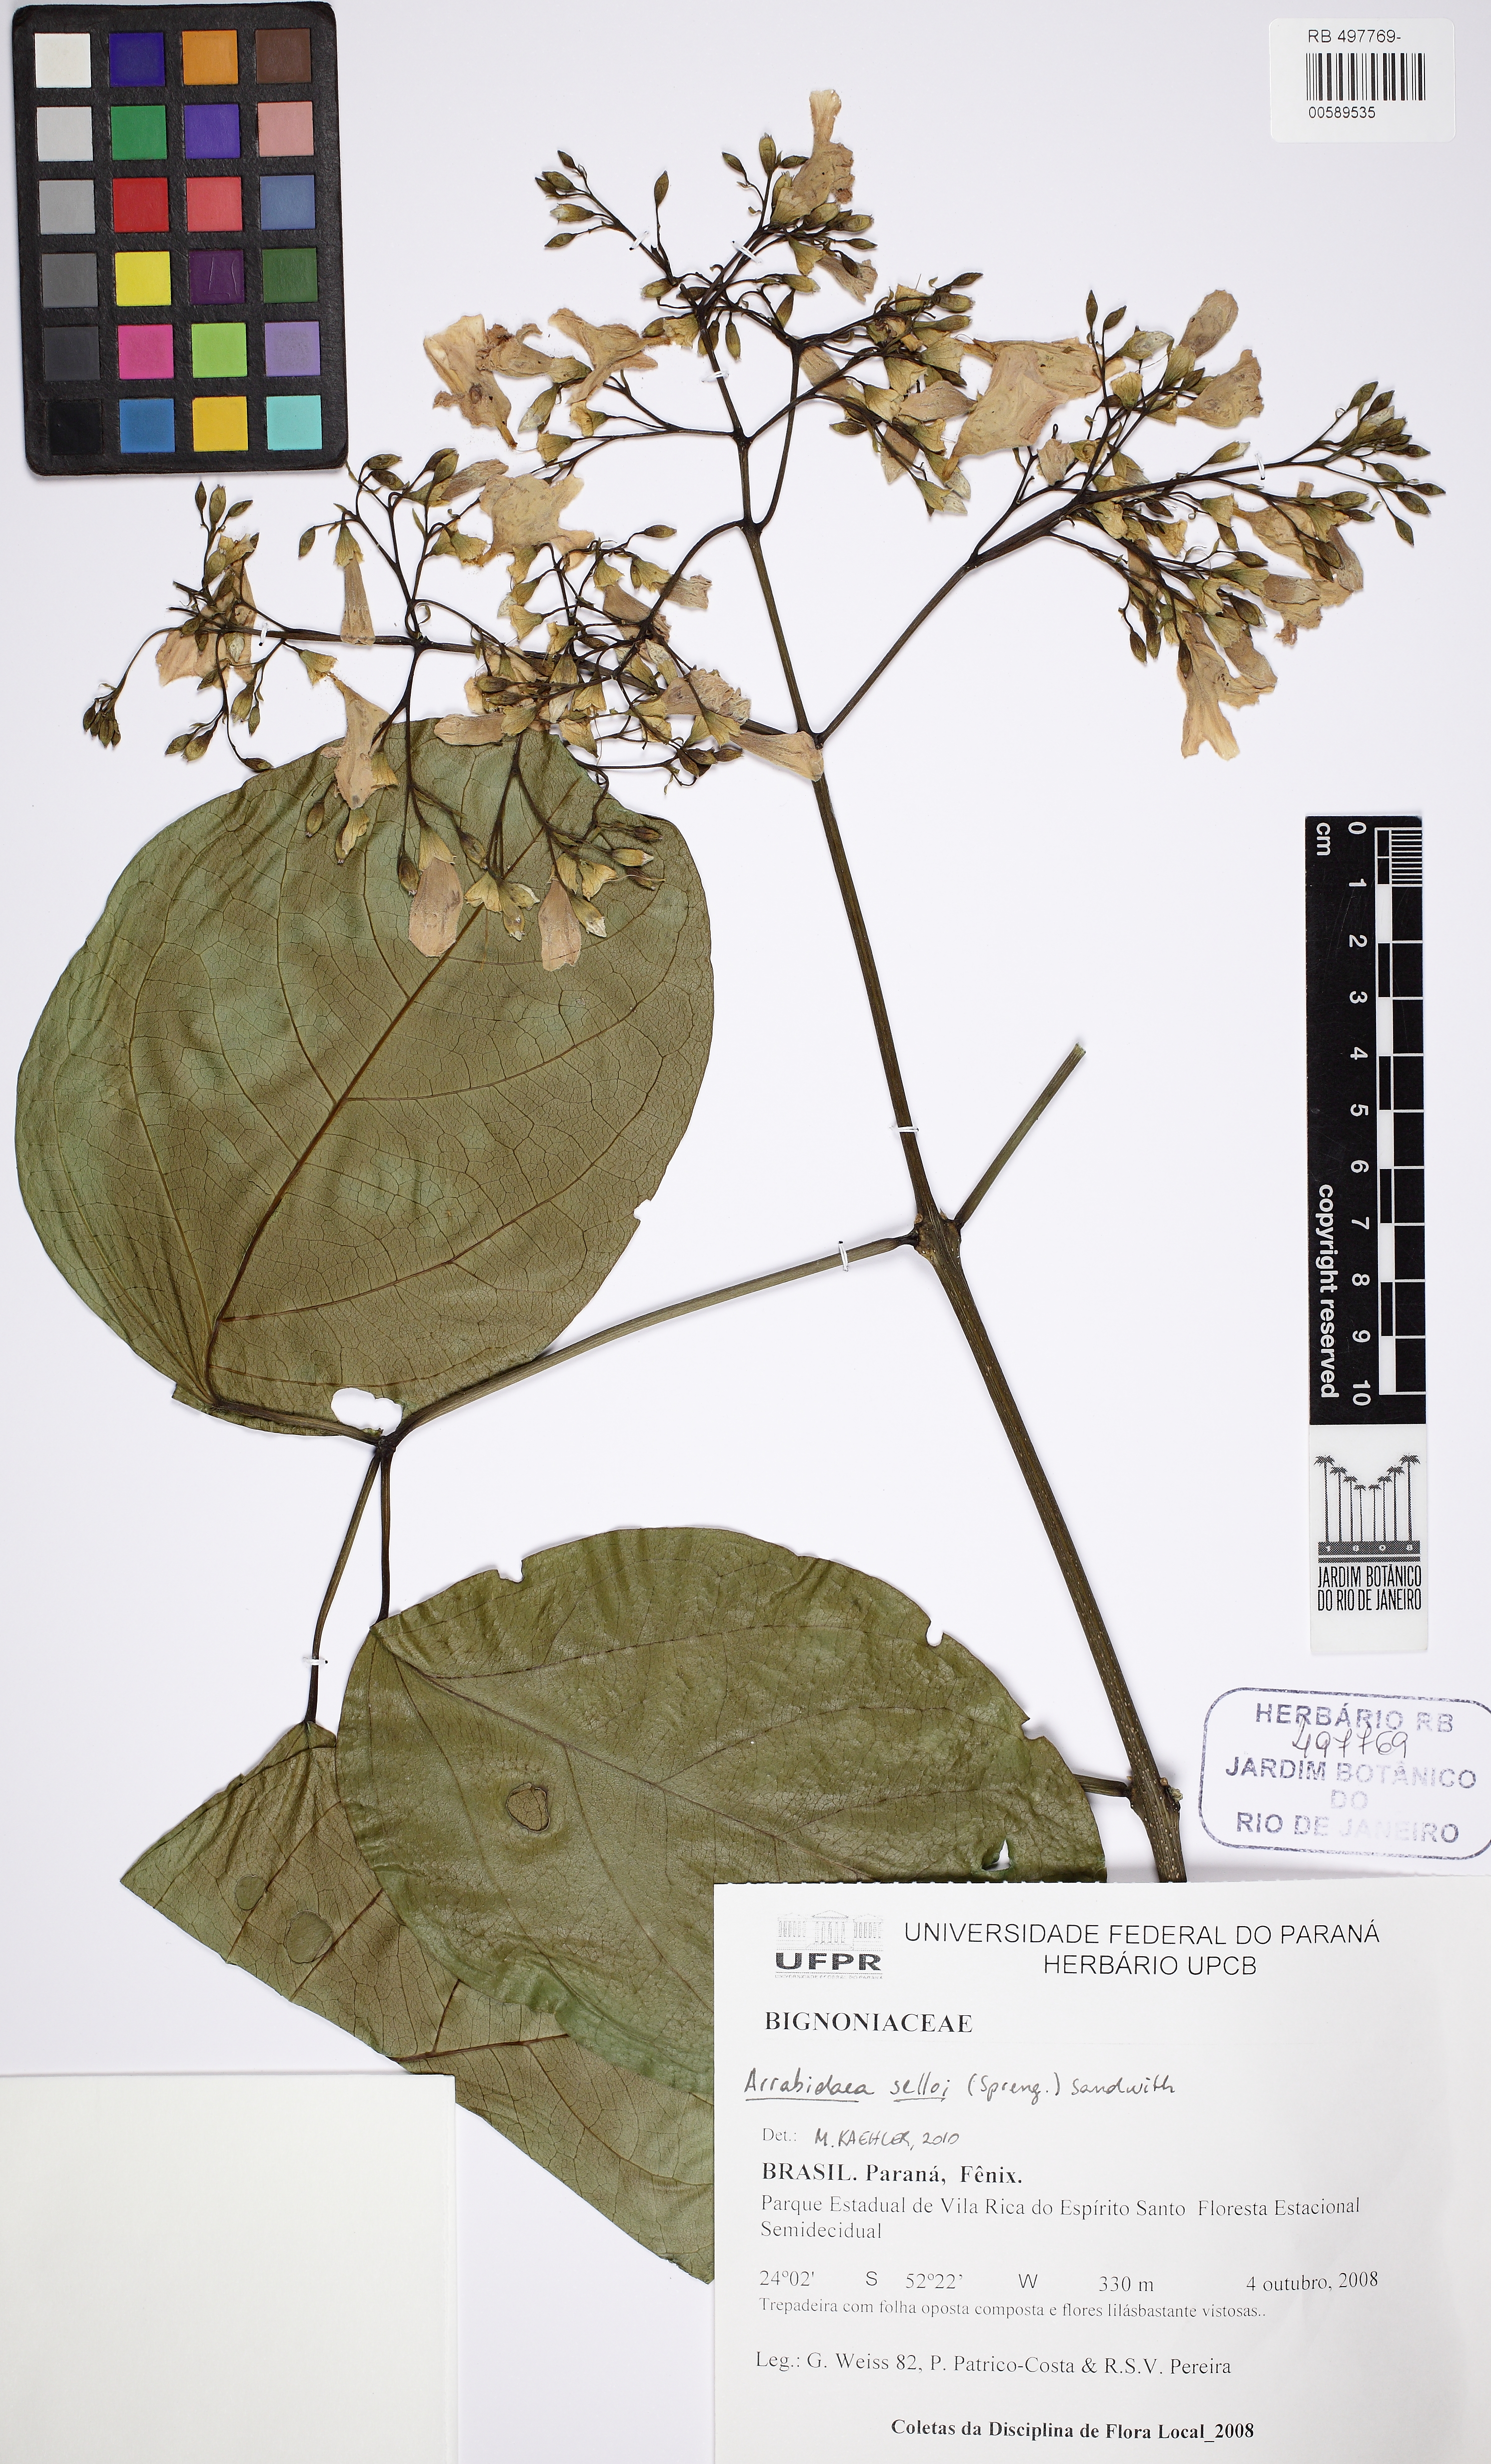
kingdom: Plantae
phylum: Tracheophyta
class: Magnoliopsida
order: Lamiales
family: Bignoniaceae
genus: Fridericia
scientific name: Fridericia mutabilis
